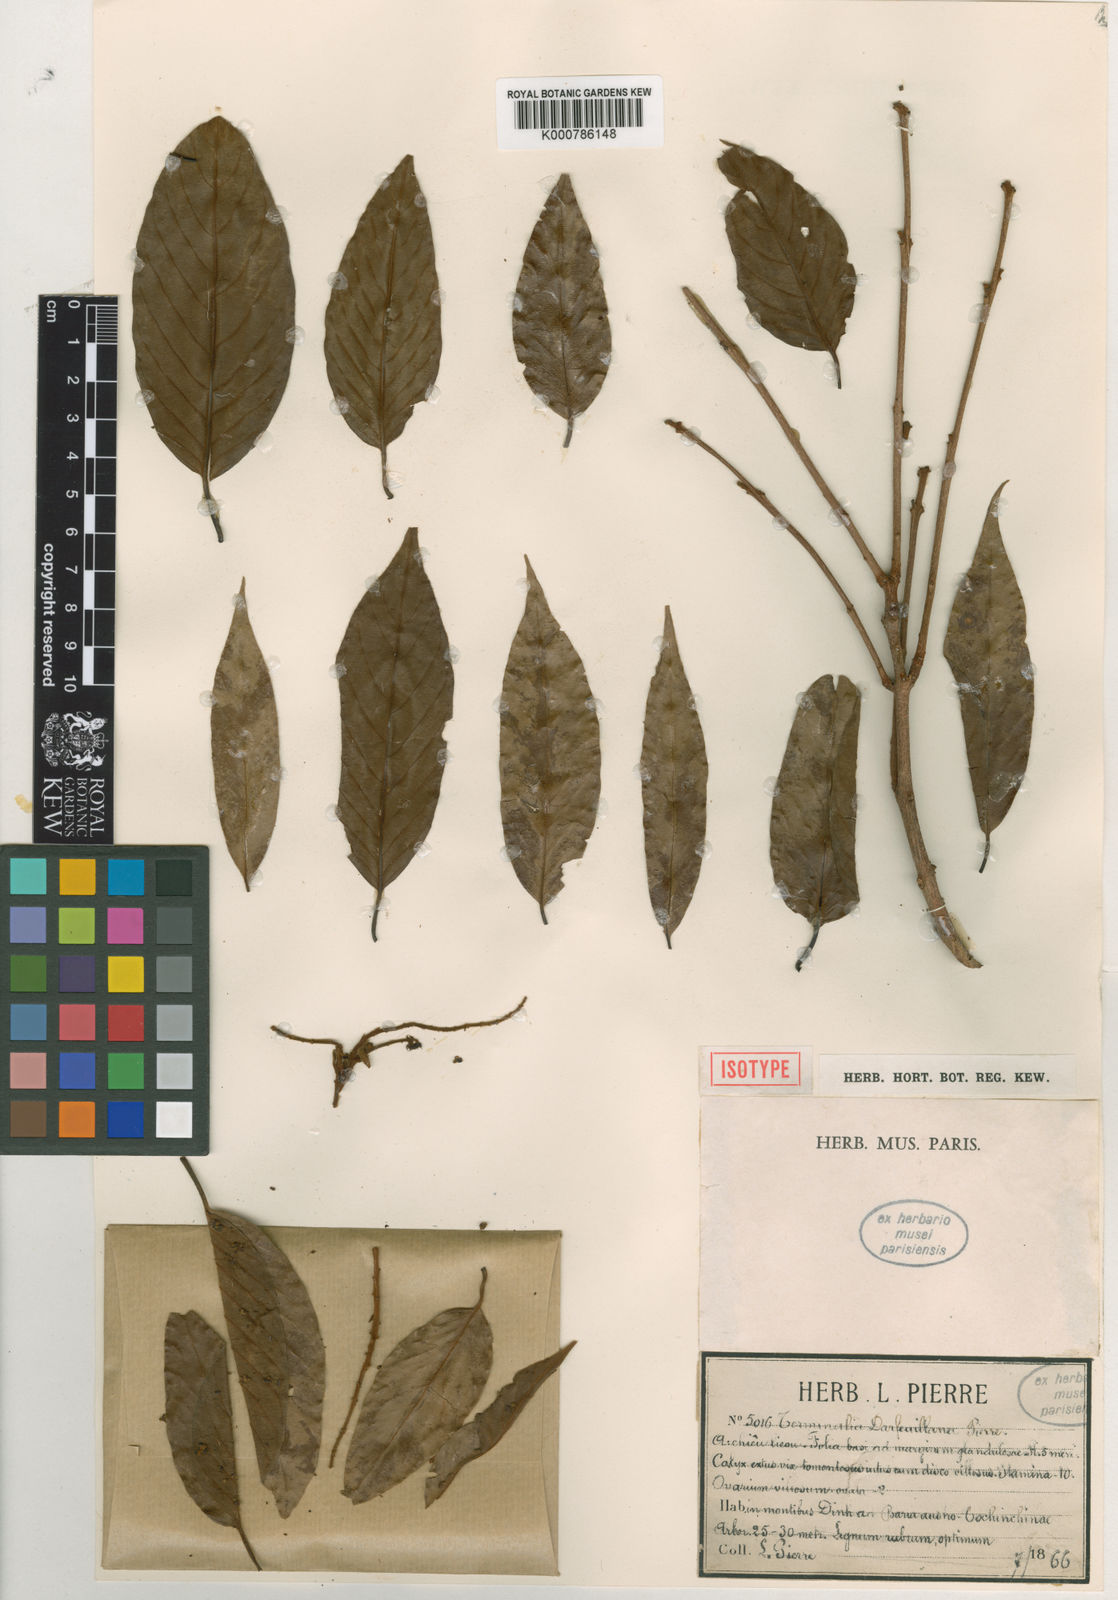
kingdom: Plantae
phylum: Tracheophyta
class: Magnoliopsida
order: Myrtales
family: Combretaceae
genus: Terminalia
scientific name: Terminalia
